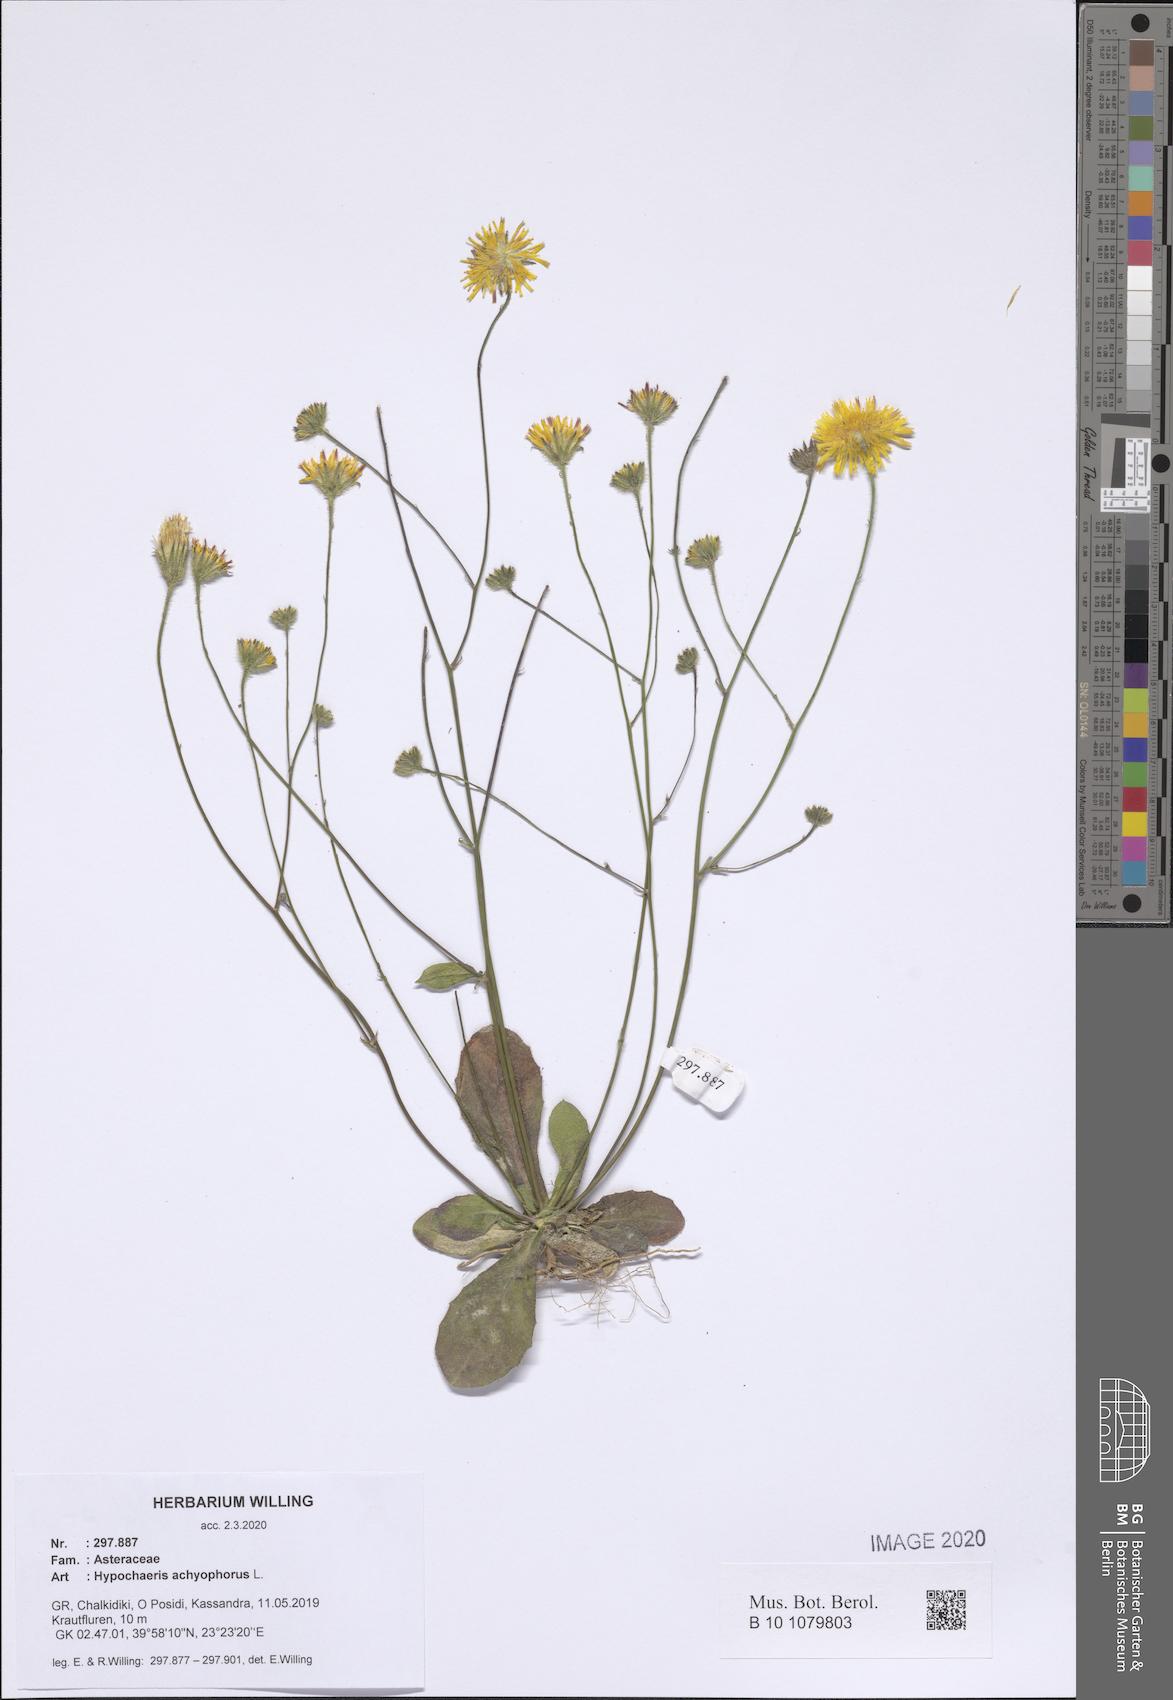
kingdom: Plantae
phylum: Tracheophyta
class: Magnoliopsida
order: Asterales
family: Asteraceae
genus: Achyrophorus
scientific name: Achyrophorus valdesii
